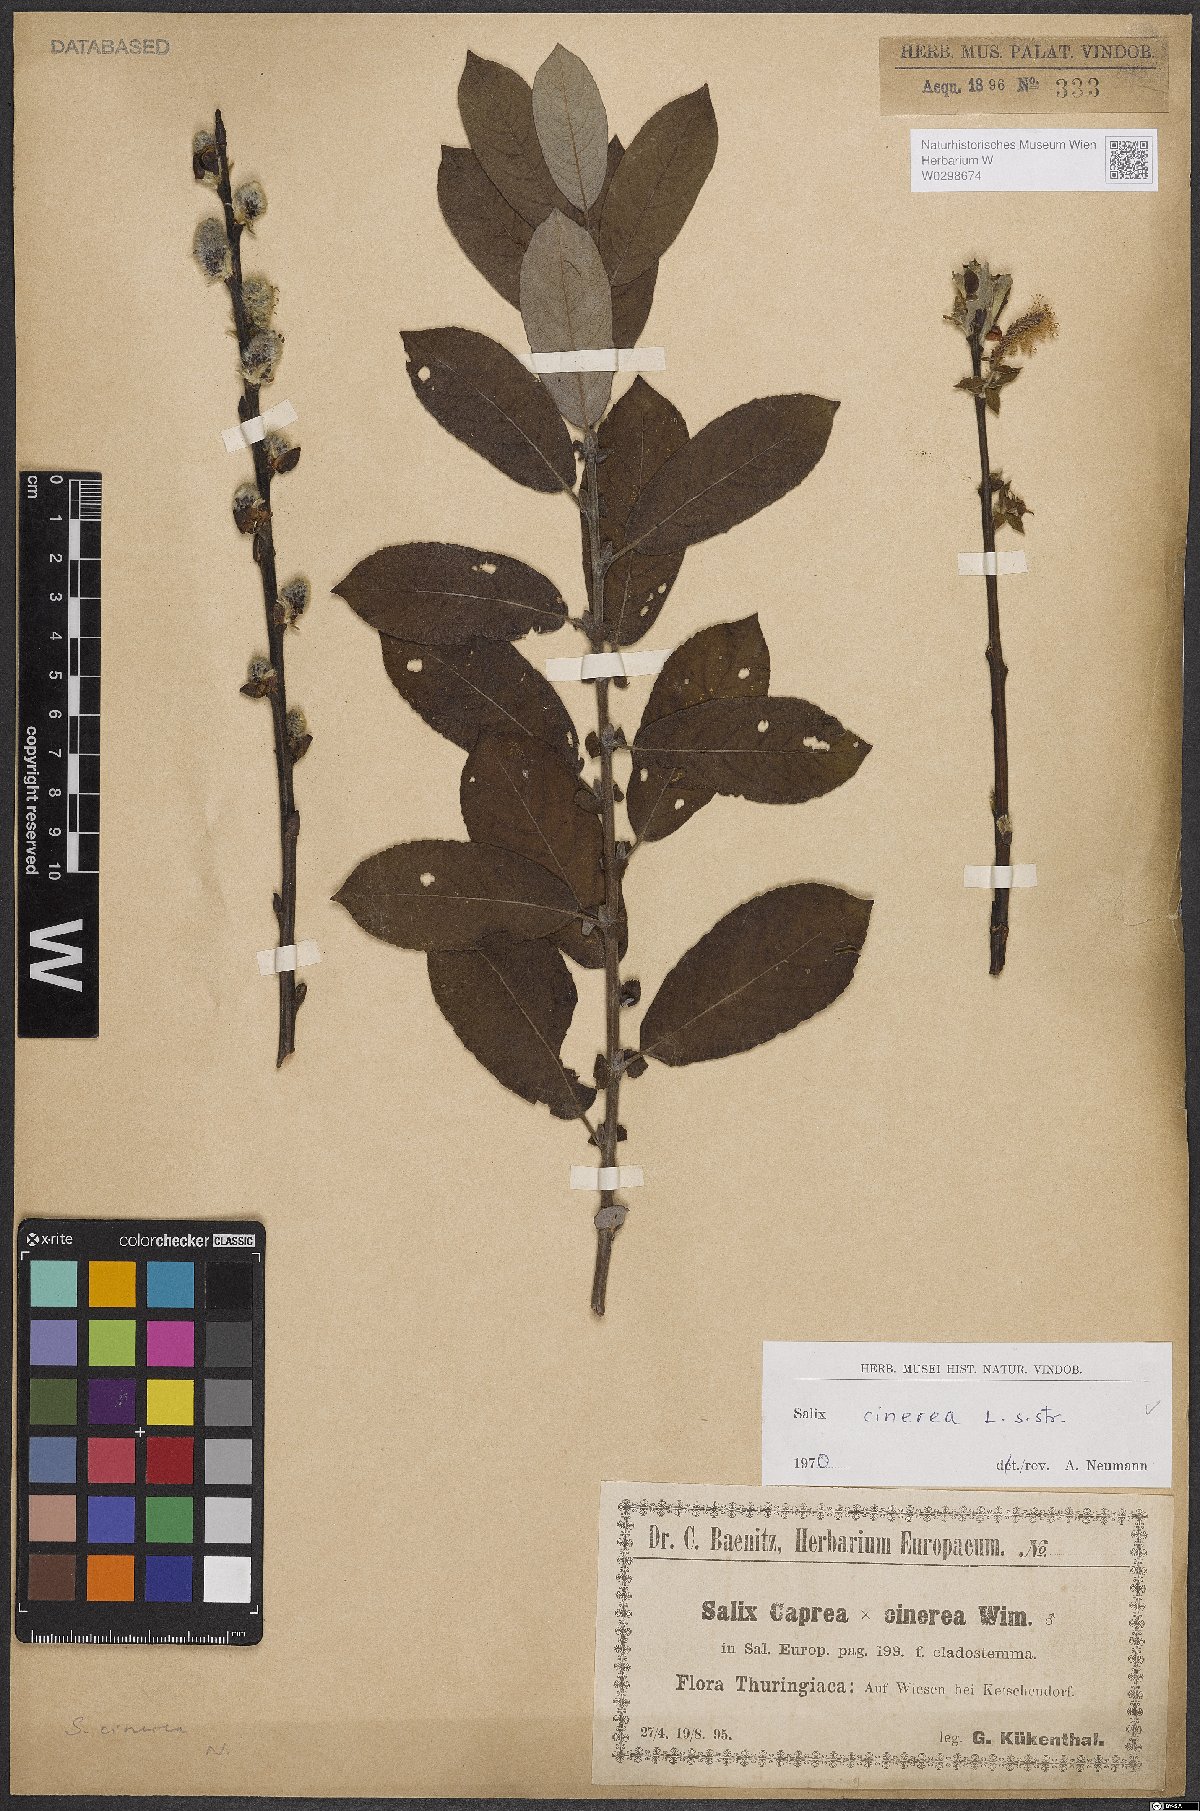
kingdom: Plantae
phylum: Tracheophyta
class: Magnoliopsida
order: Malpighiales
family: Salicaceae
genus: Salix
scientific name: Salix cinerea
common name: Common sallow
